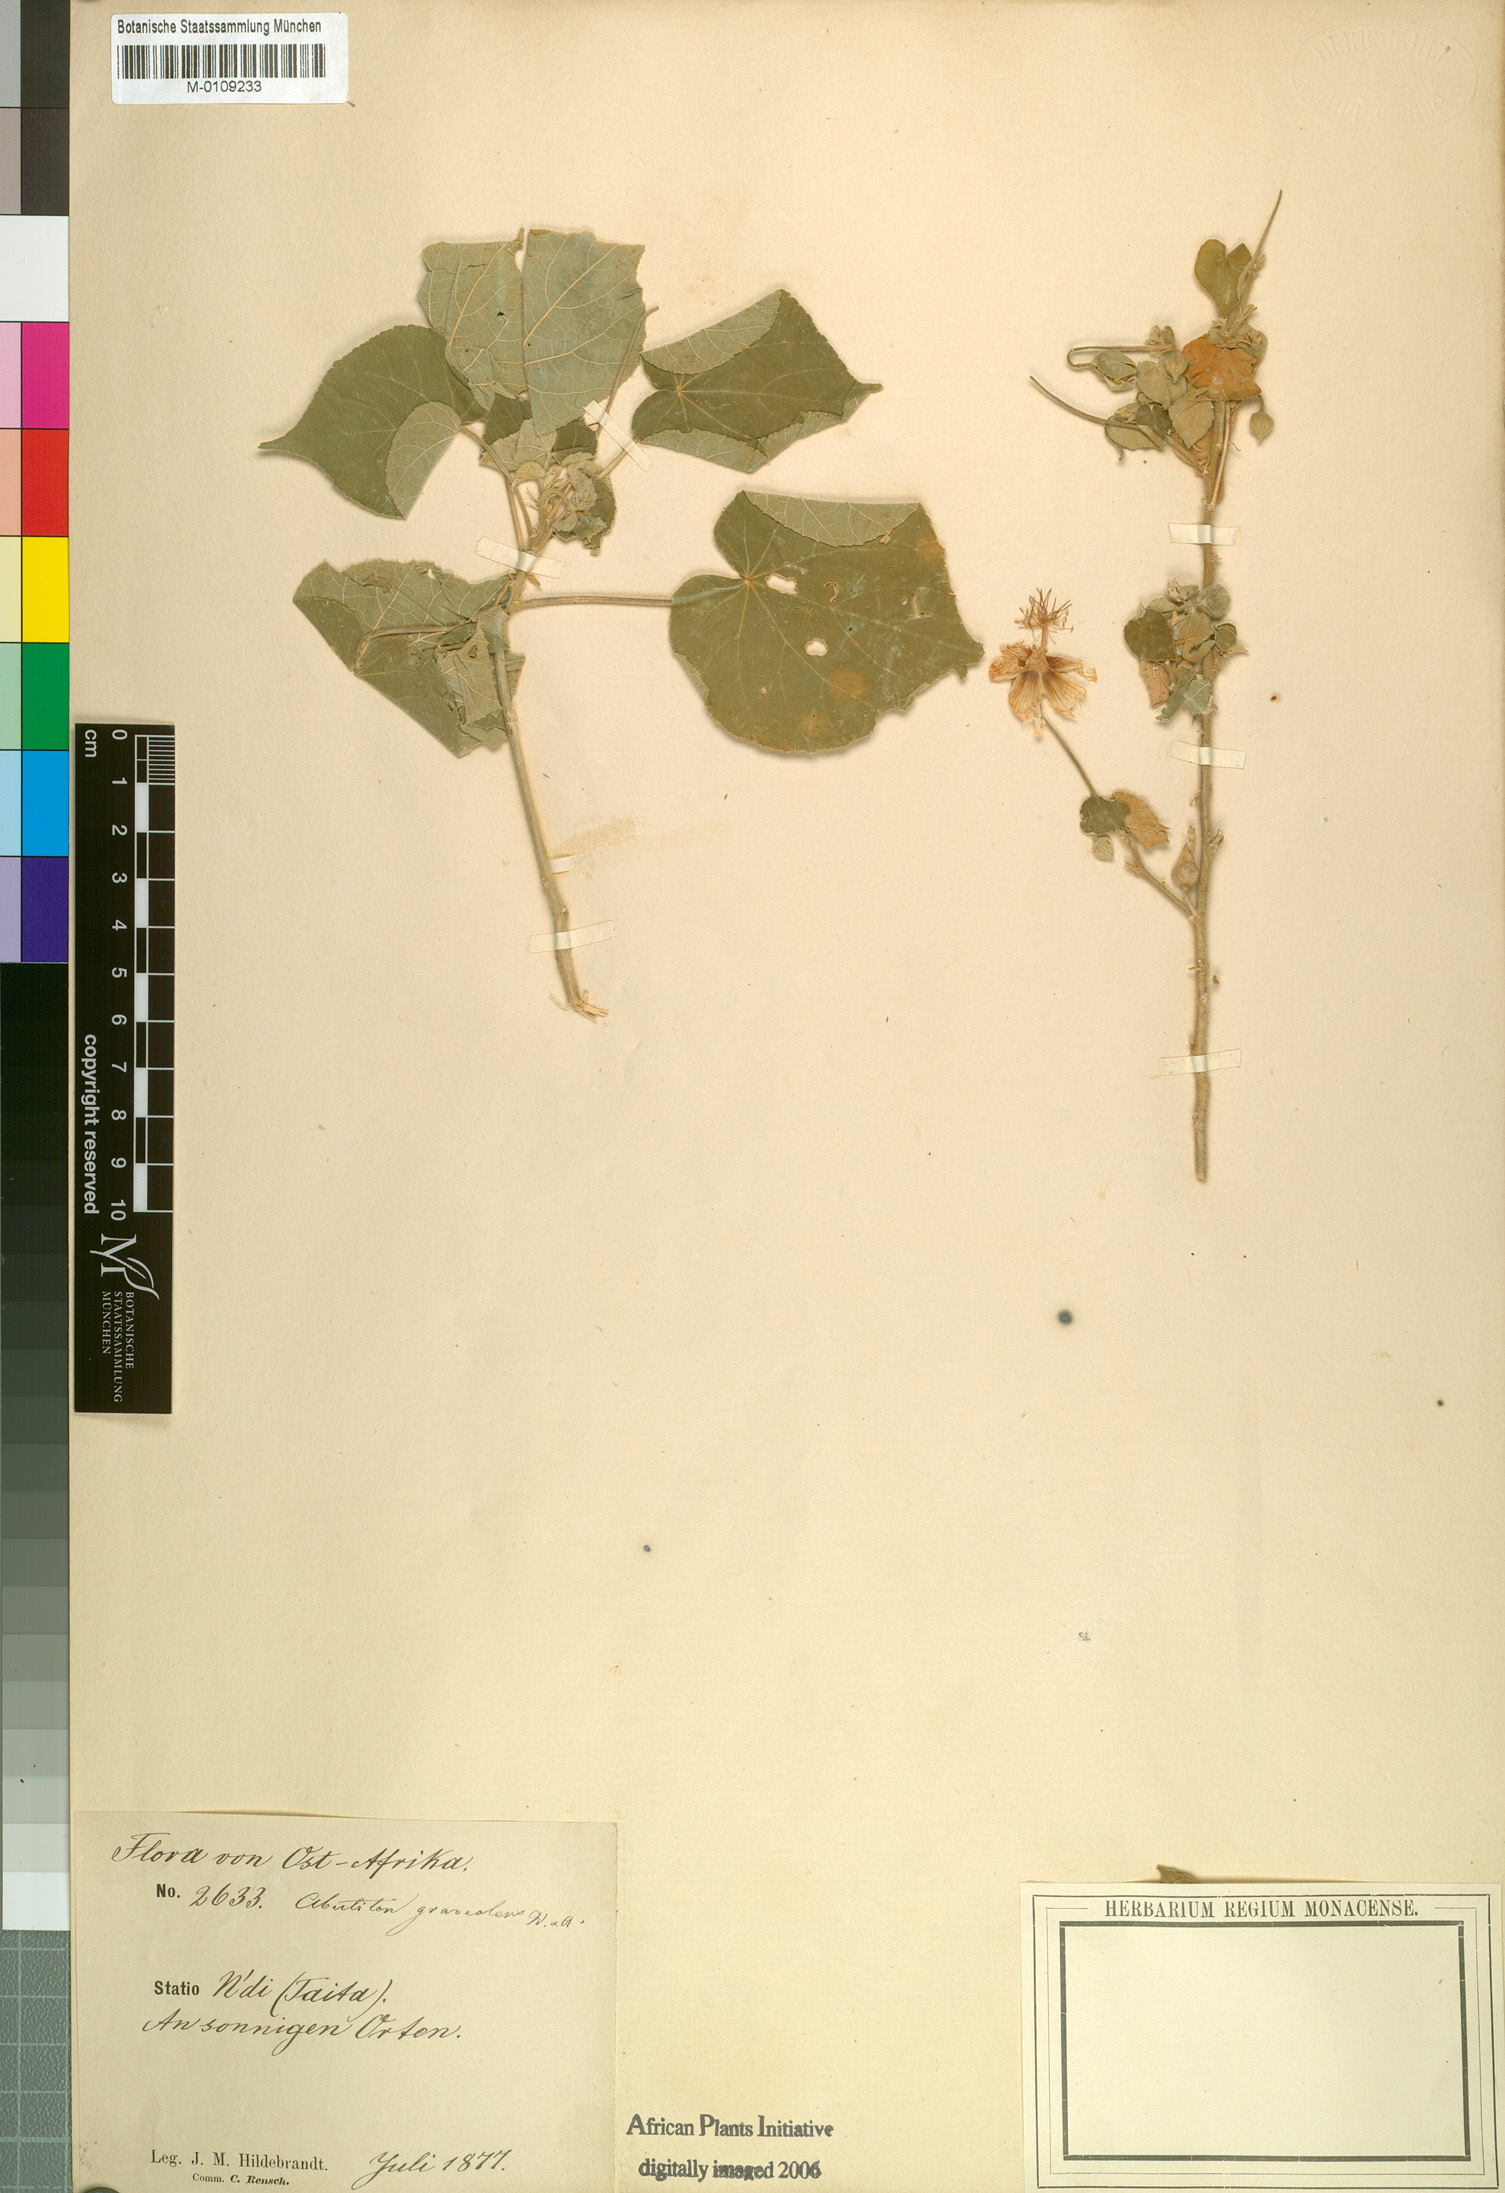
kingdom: Plantae
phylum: Tracheophyta
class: Magnoliopsida
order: Malvales
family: Malvaceae
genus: Abutilon
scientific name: Abutilon mauritianum
